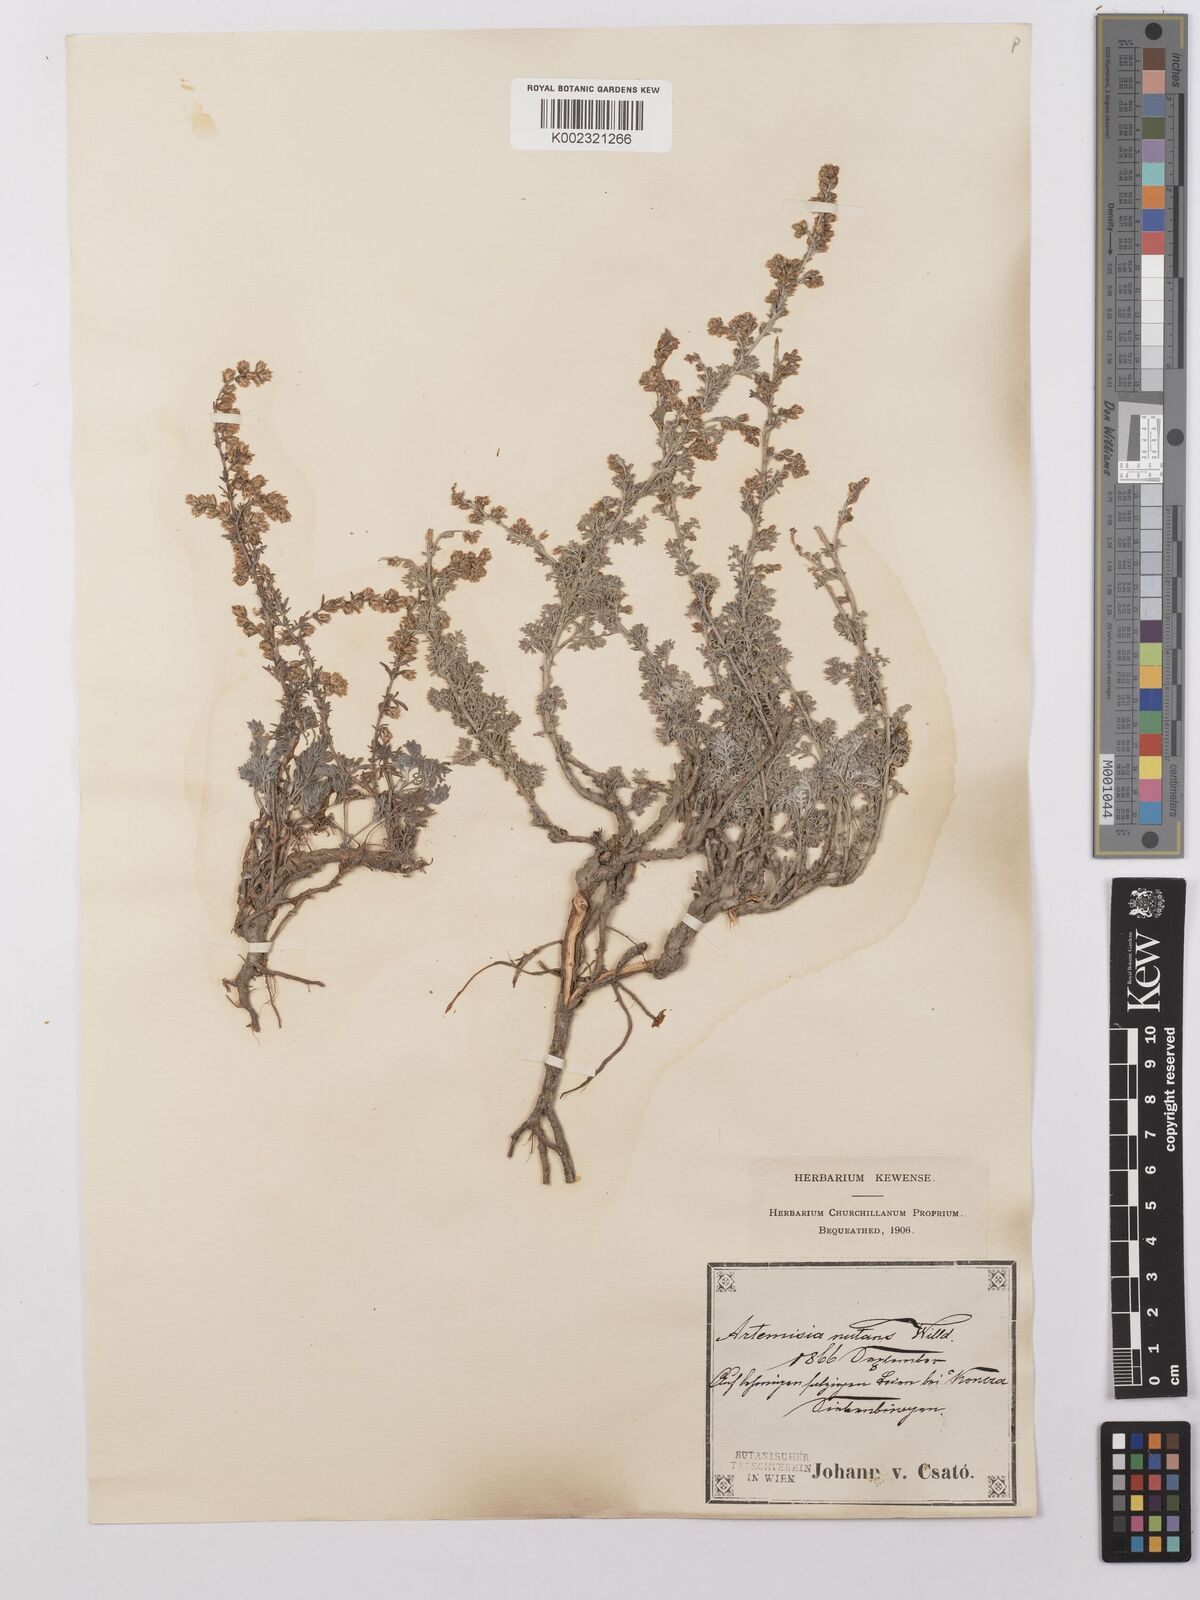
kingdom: Plantae
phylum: Tracheophyta
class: Magnoliopsida
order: Asterales
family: Asteraceae
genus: Artemisia
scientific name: Artemisia nutans
